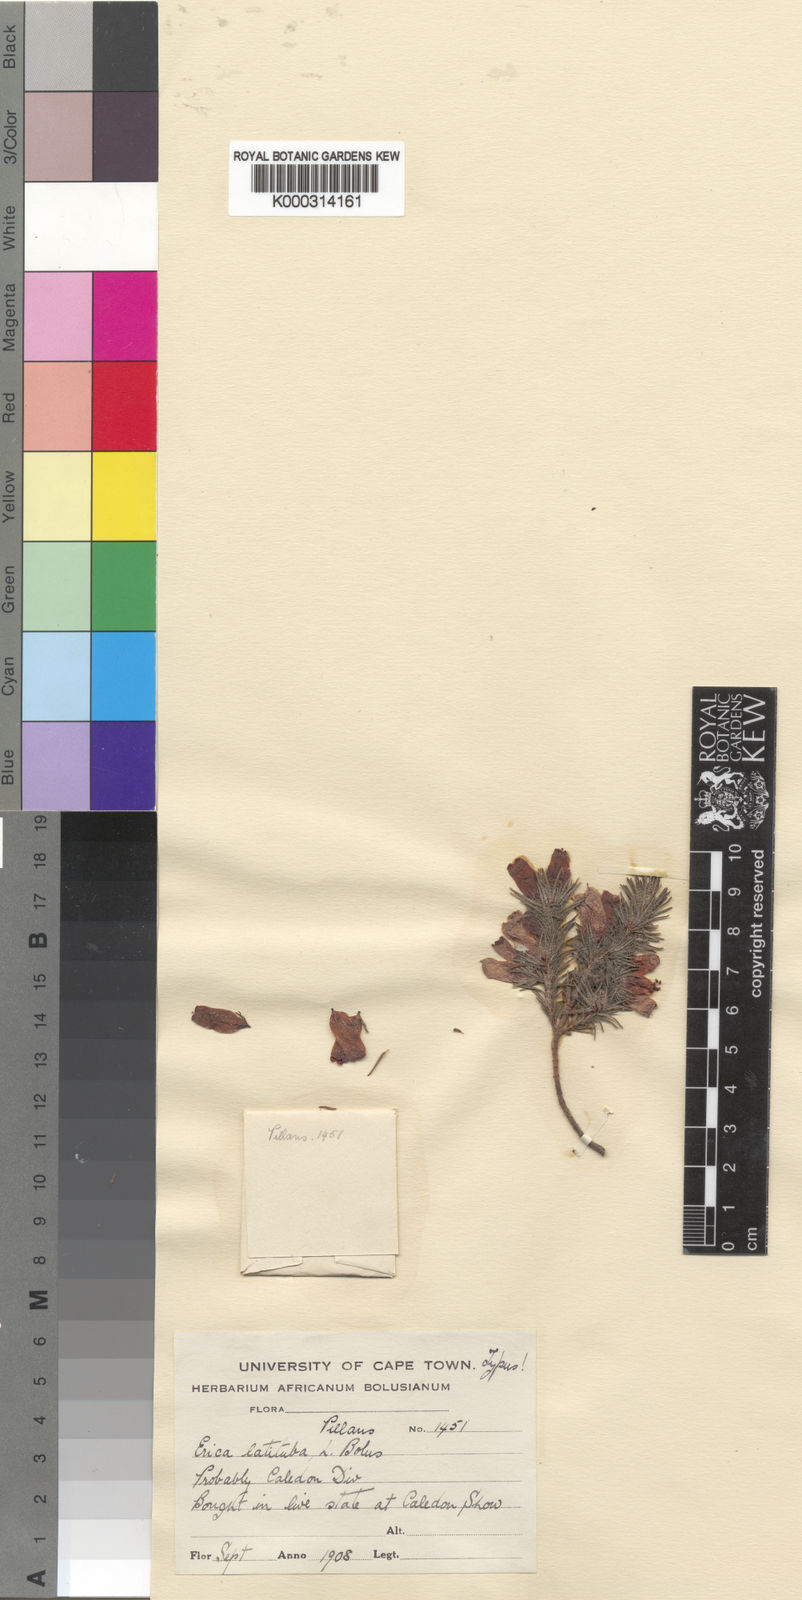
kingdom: Plantae
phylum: Tracheophyta
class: Magnoliopsida
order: Ericales
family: Ericaceae
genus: Erica
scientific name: Erica latituba
